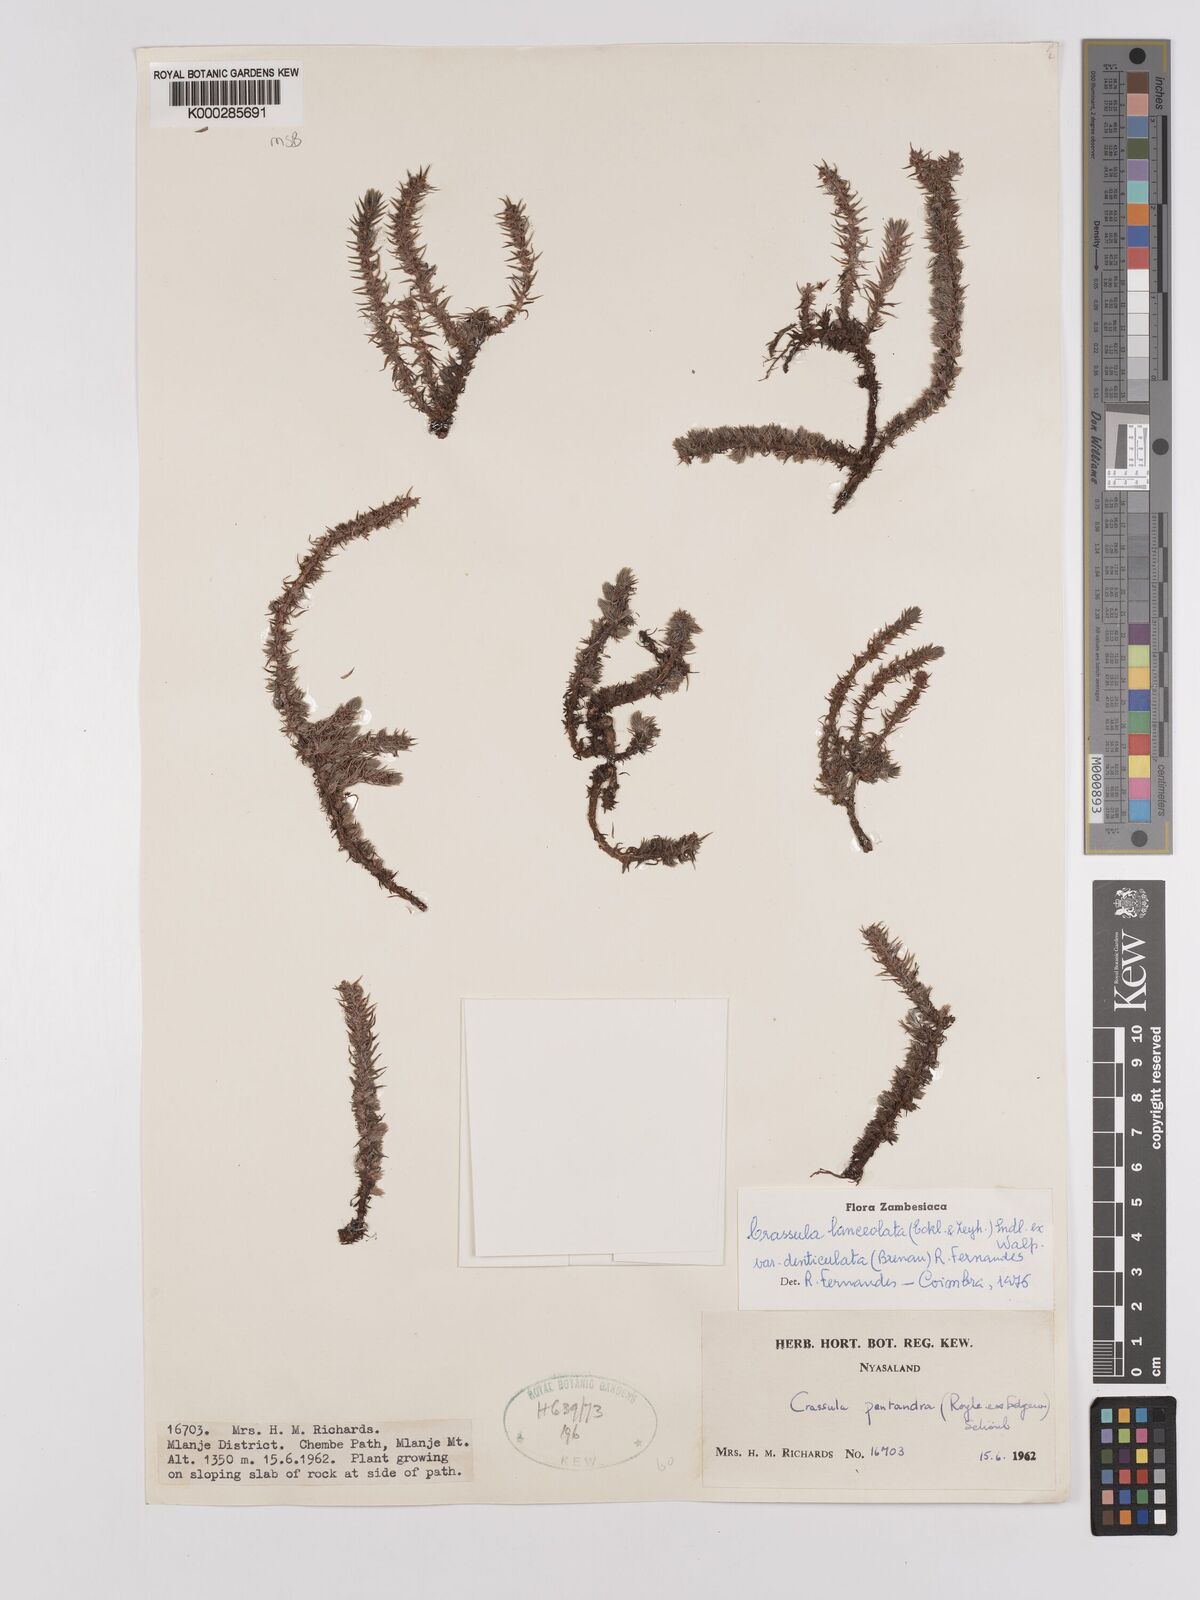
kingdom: Plantae
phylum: Tracheophyta
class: Magnoliopsida
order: Saxifragales
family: Crassulaceae
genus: Crassula
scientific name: Crassula lanceolata
